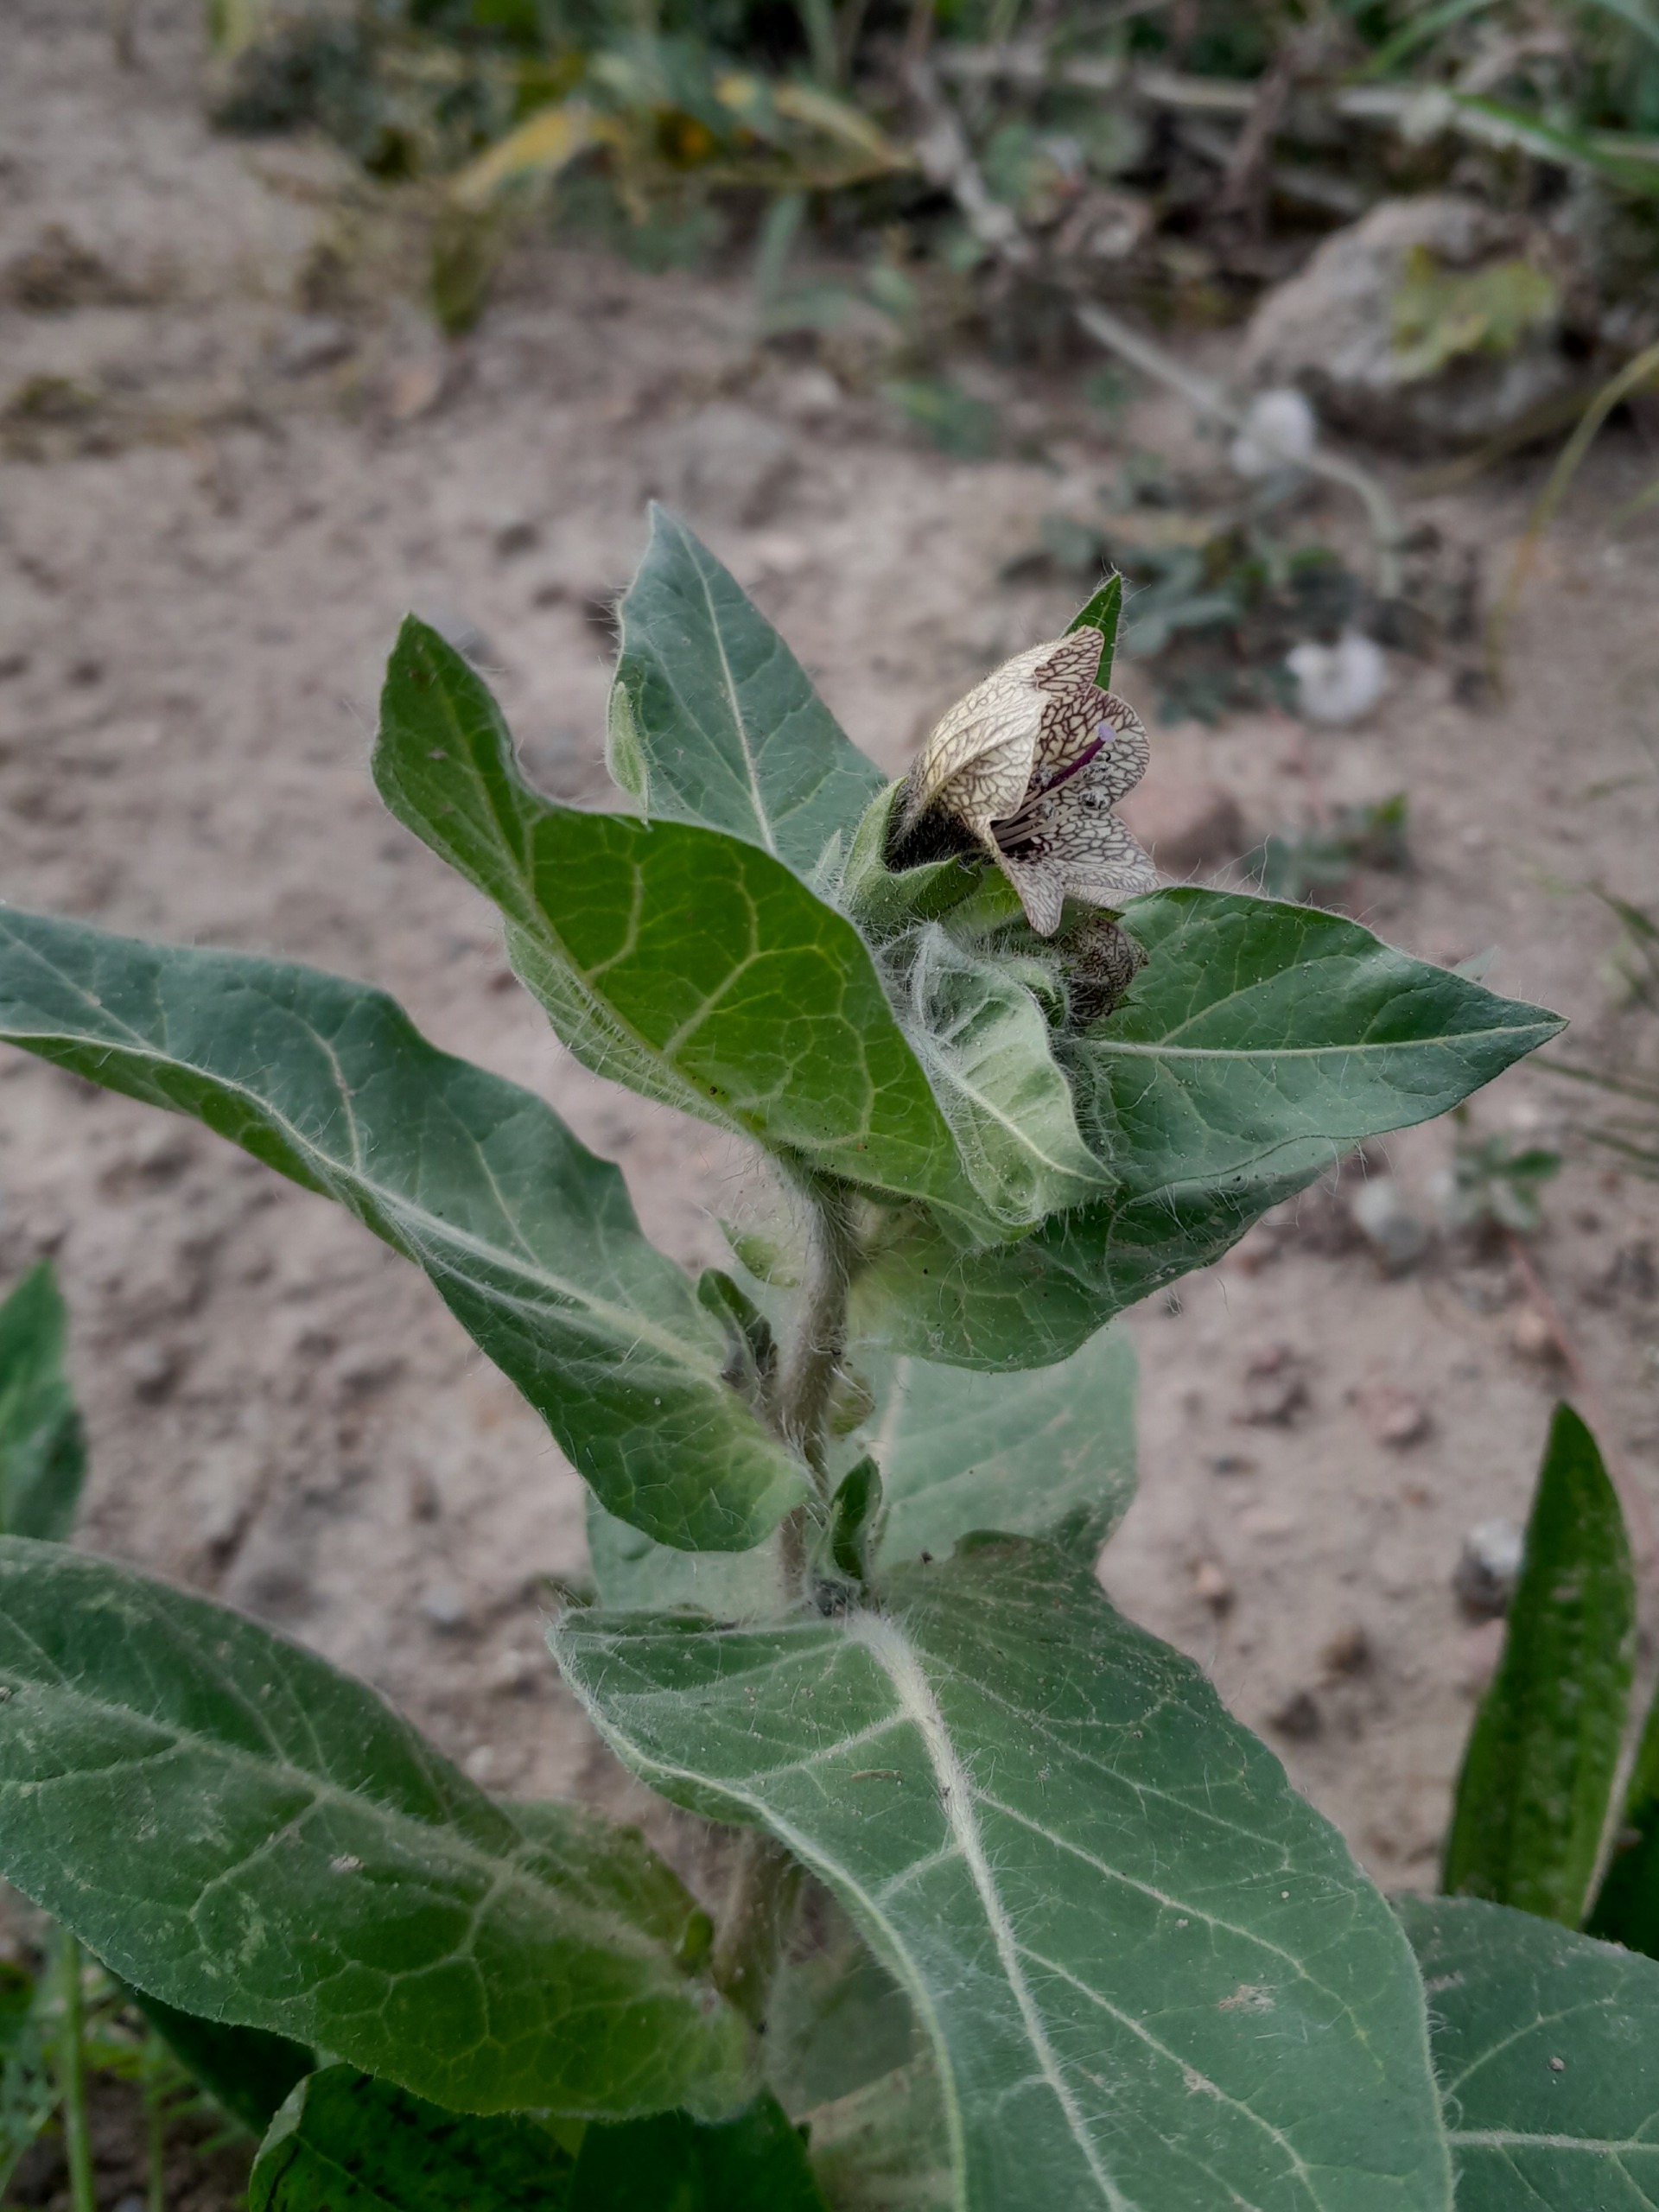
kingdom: Plantae
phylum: Tracheophyta
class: Magnoliopsida
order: Solanales
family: Solanaceae
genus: Hyoscyamus
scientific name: Hyoscyamus niger
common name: Bulmeurt
